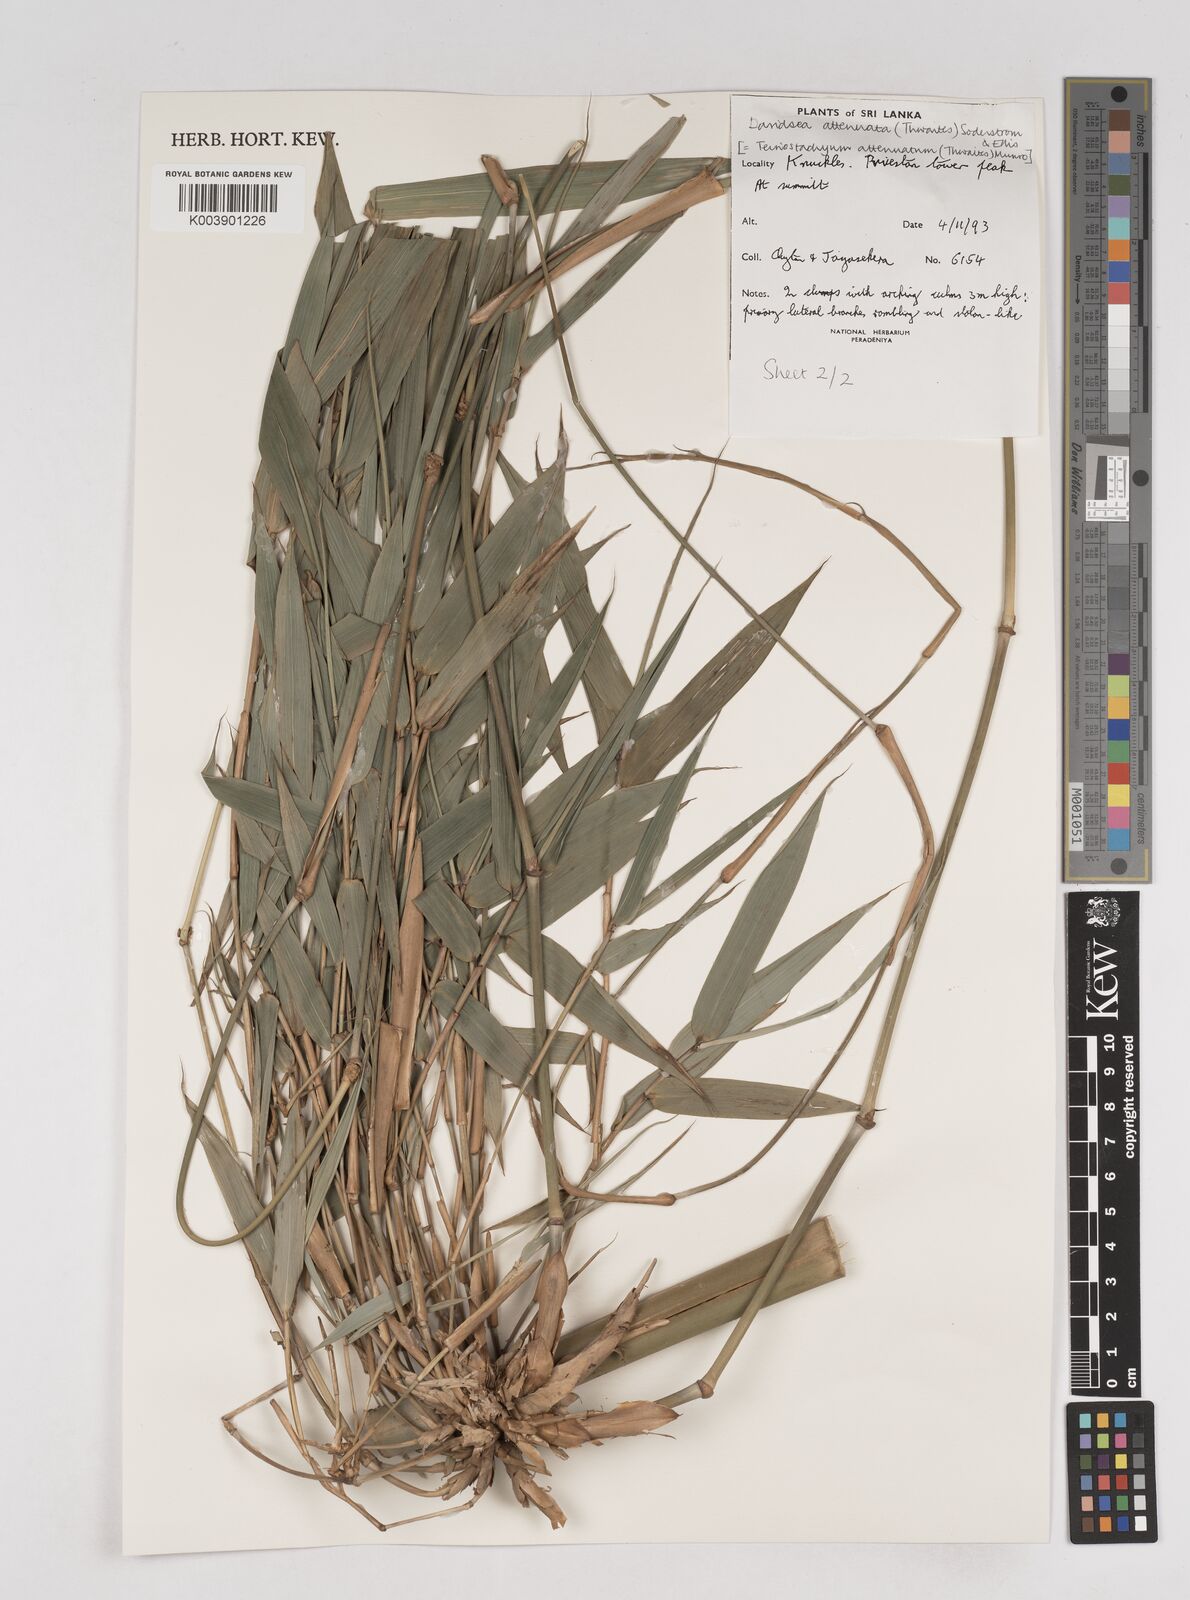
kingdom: Plantae
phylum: Tracheophyta
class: Liliopsida
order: Poales
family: Poaceae
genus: Davidsea
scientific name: Davidsea
